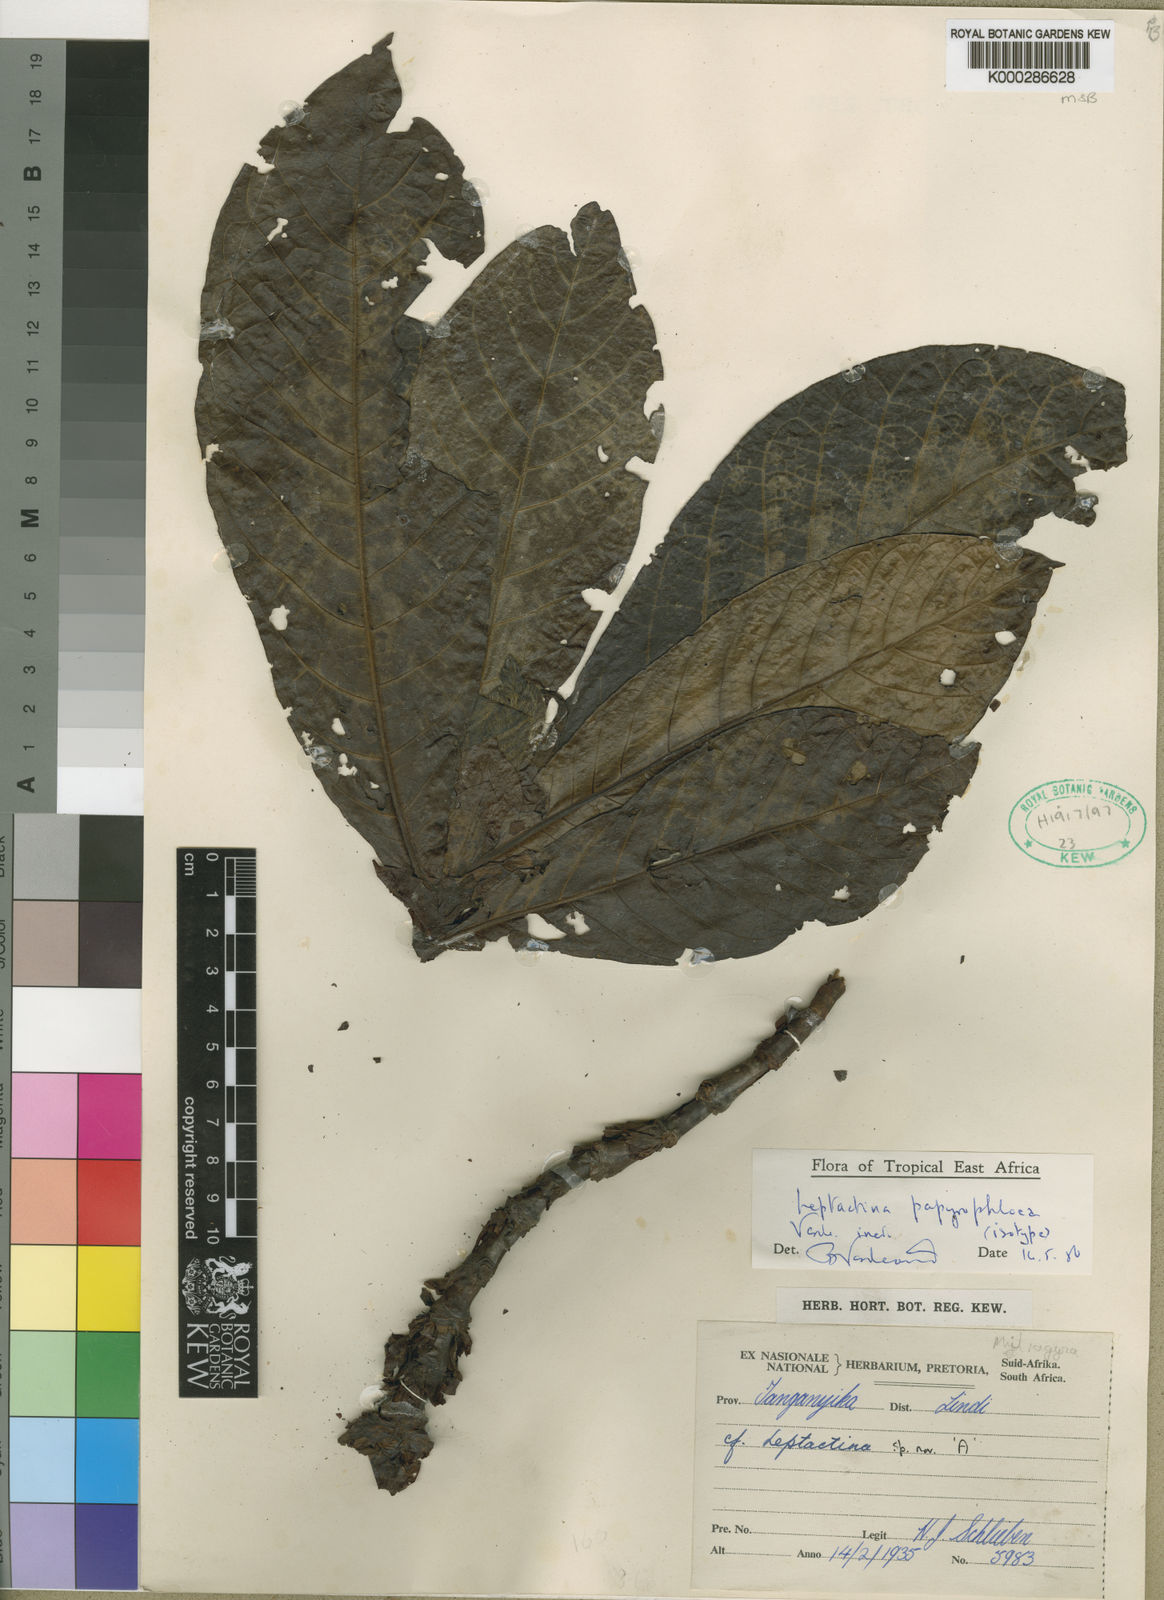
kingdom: Plantae
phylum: Tracheophyta
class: Magnoliopsida
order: Gentianales
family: Rubiaceae
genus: Leptactina
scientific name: Leptactina papyrophloea
